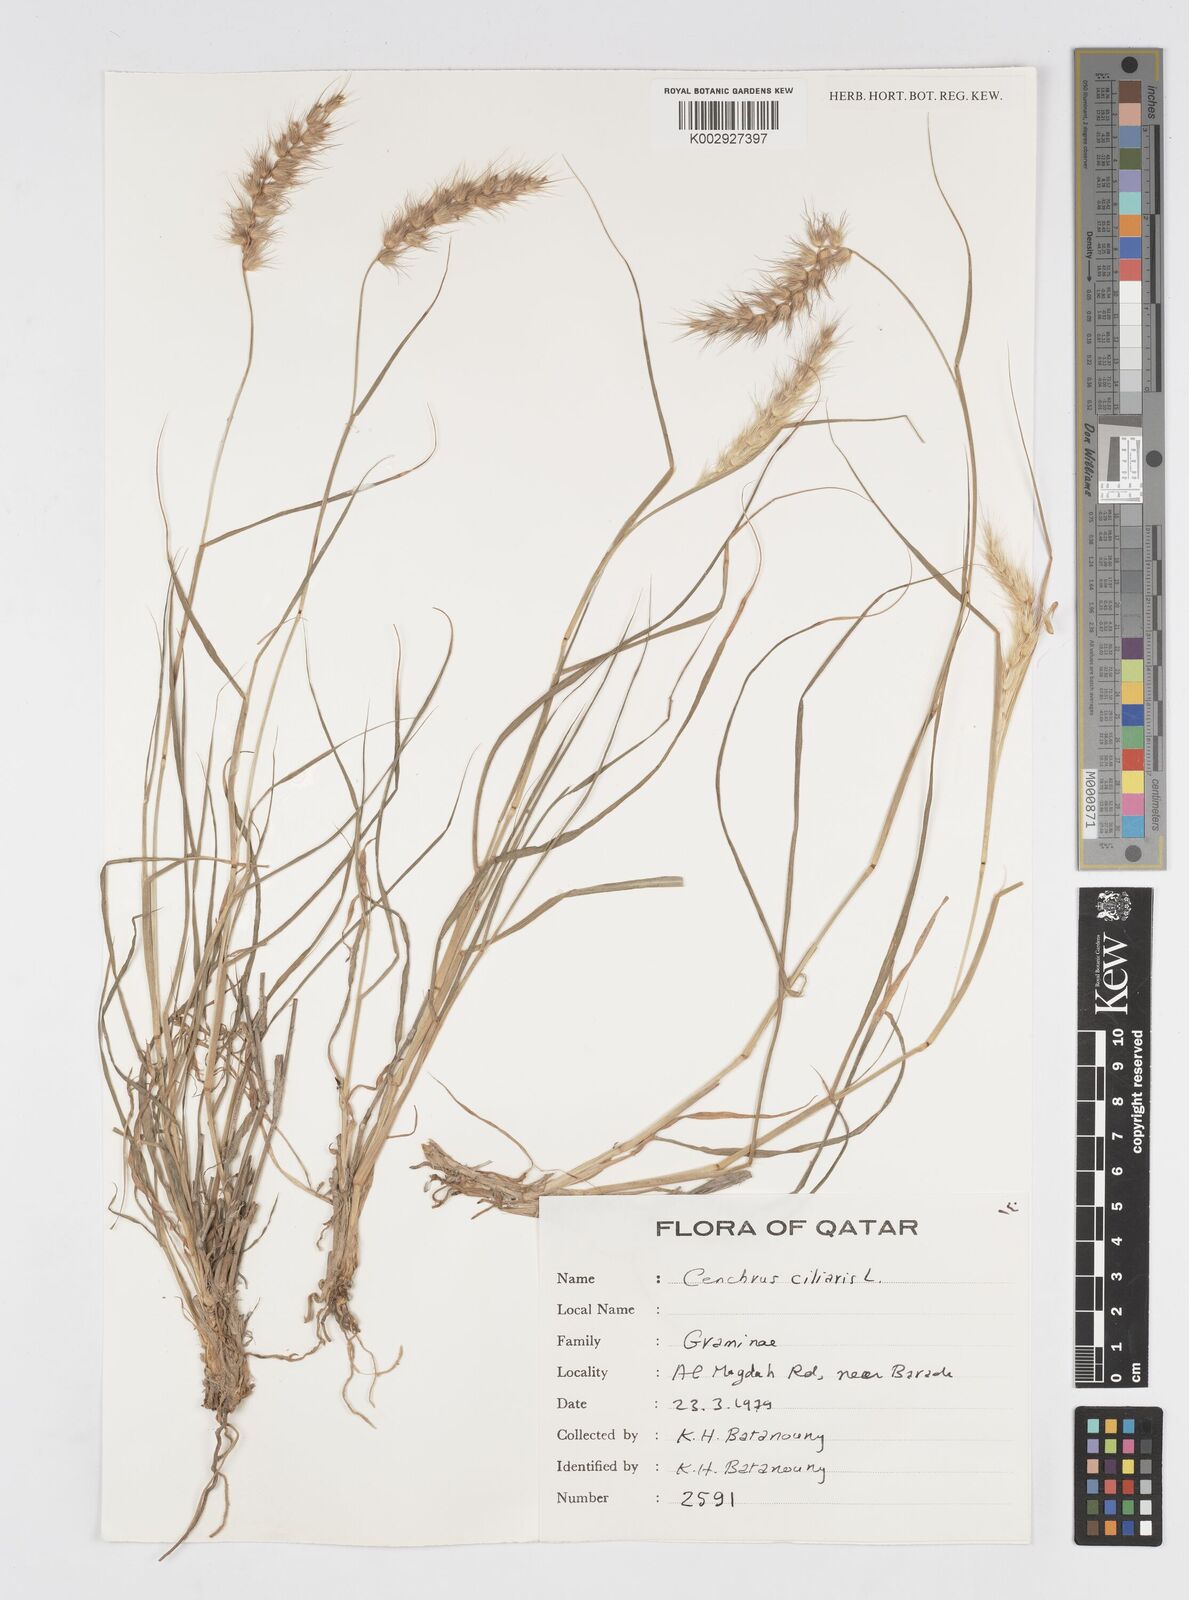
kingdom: Plantae
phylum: Tracheophyta
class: Liliopsida
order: Poales
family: Poaceae
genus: Cenchrus
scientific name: Cenchrus ciliaris
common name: Buffelgrass
